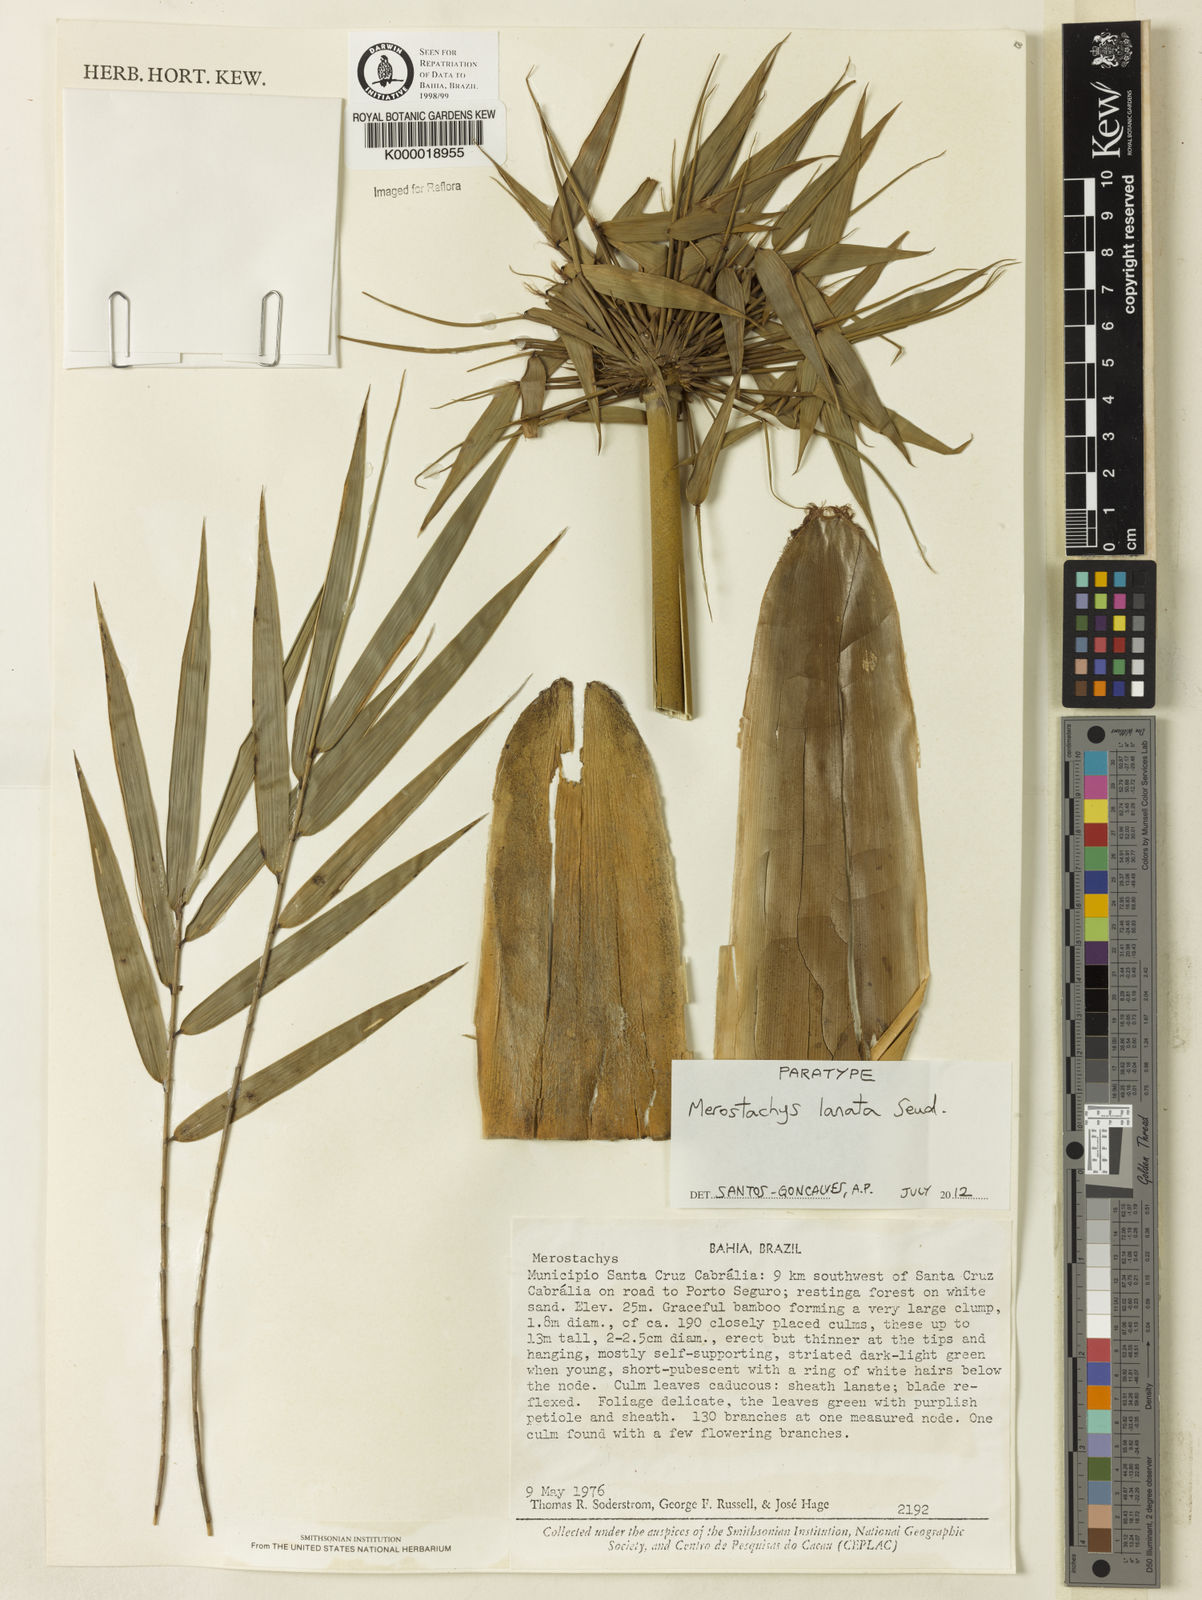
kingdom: Plantae
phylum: Tracheophyta
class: Liliopsida
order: Poales
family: Poaceae
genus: Merostachys
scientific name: Merostachys lanata
